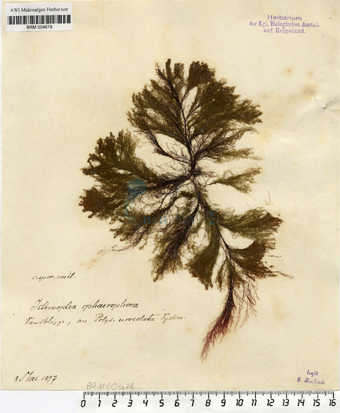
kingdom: Chromista
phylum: Ochrophyta
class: Phaeophyceae
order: Ectocarpales
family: Chordariaceae
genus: Isthmoplea
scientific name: Isthmoplea sphaerophora
